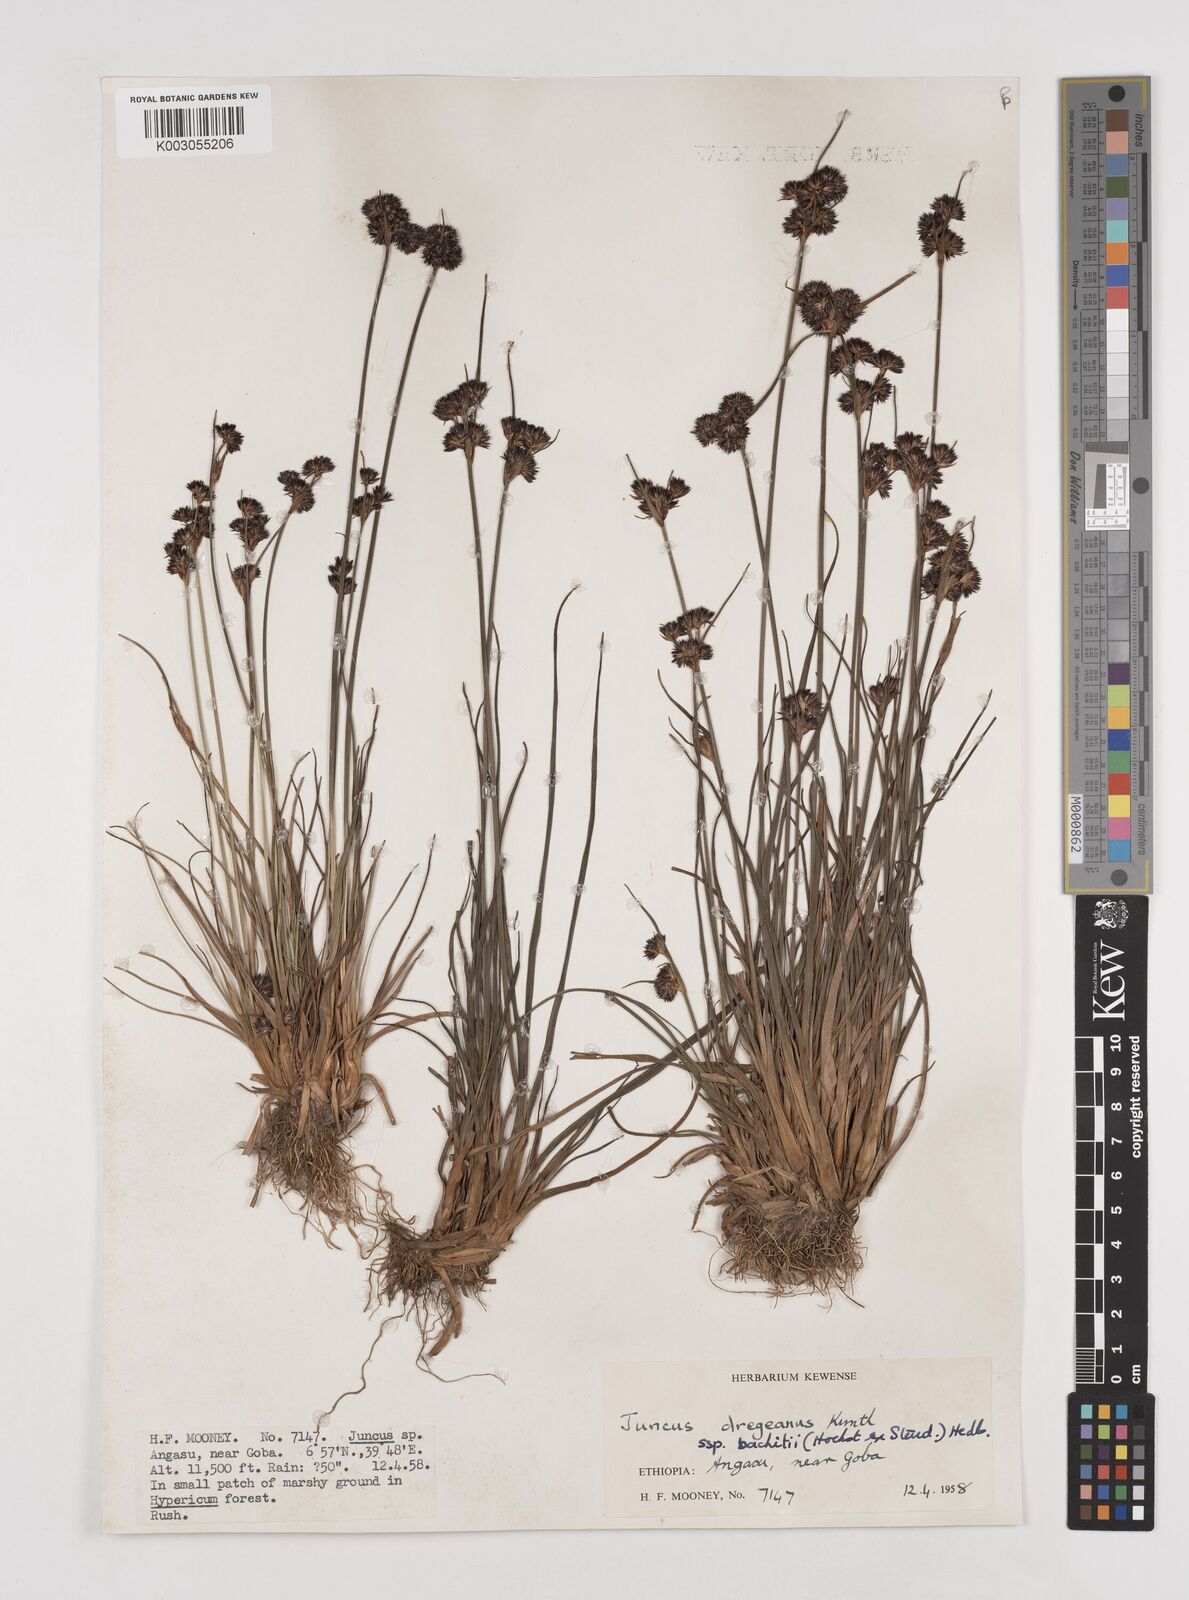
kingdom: Plantae
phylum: Tracheophyta
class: Liliopsida
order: Poales
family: Juncaceae
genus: Juncus
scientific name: Juncus dregeanus
